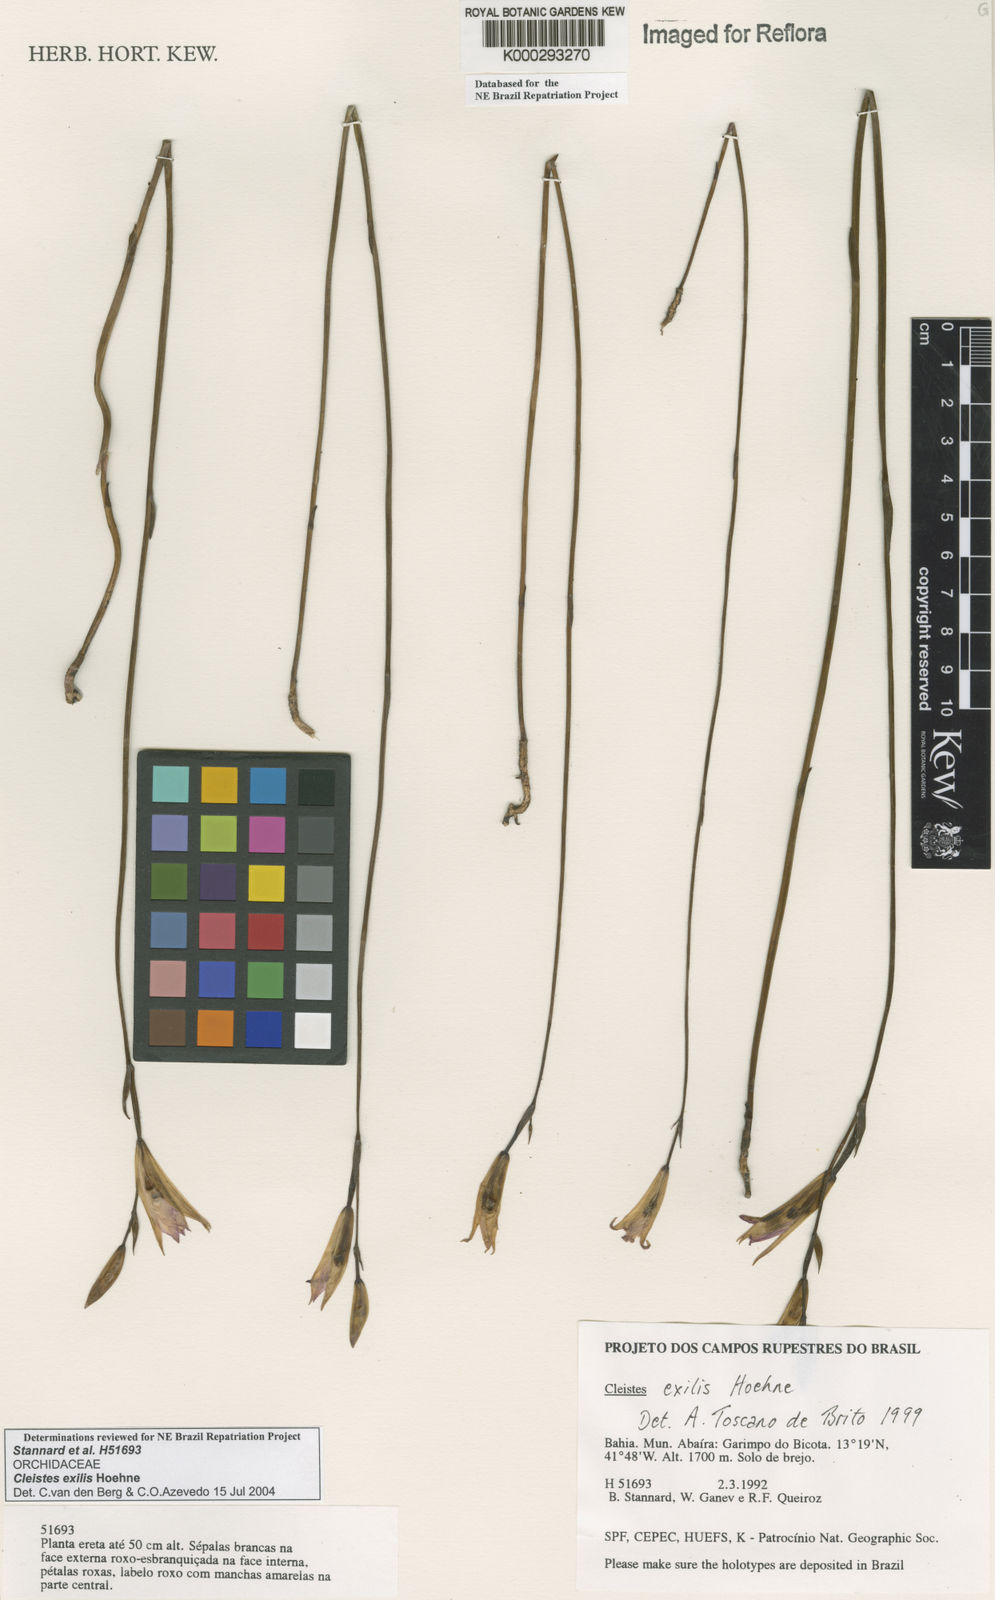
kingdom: Plantae
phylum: Tracheophyta
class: Liliopsida
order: Asparagales
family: Orchidaceae
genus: Cleistes
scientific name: Cleistes exilis
